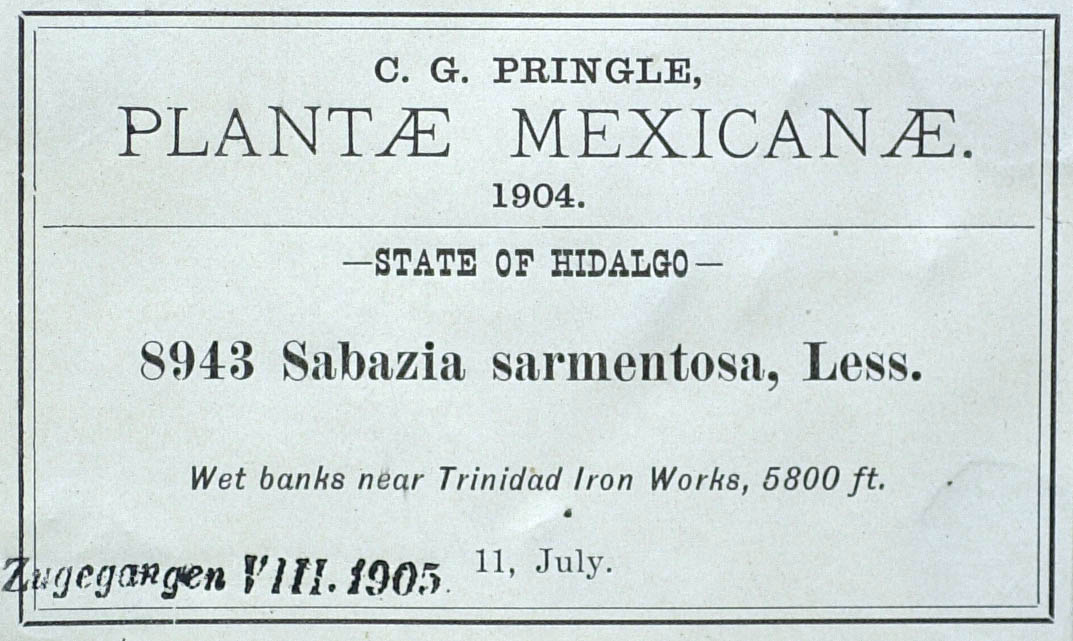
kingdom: Plantae
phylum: Tracheophyta
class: Magnoliopsida
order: Asterales
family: Asteraceae
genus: Sabazia
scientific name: Sabazia sarmentosa
